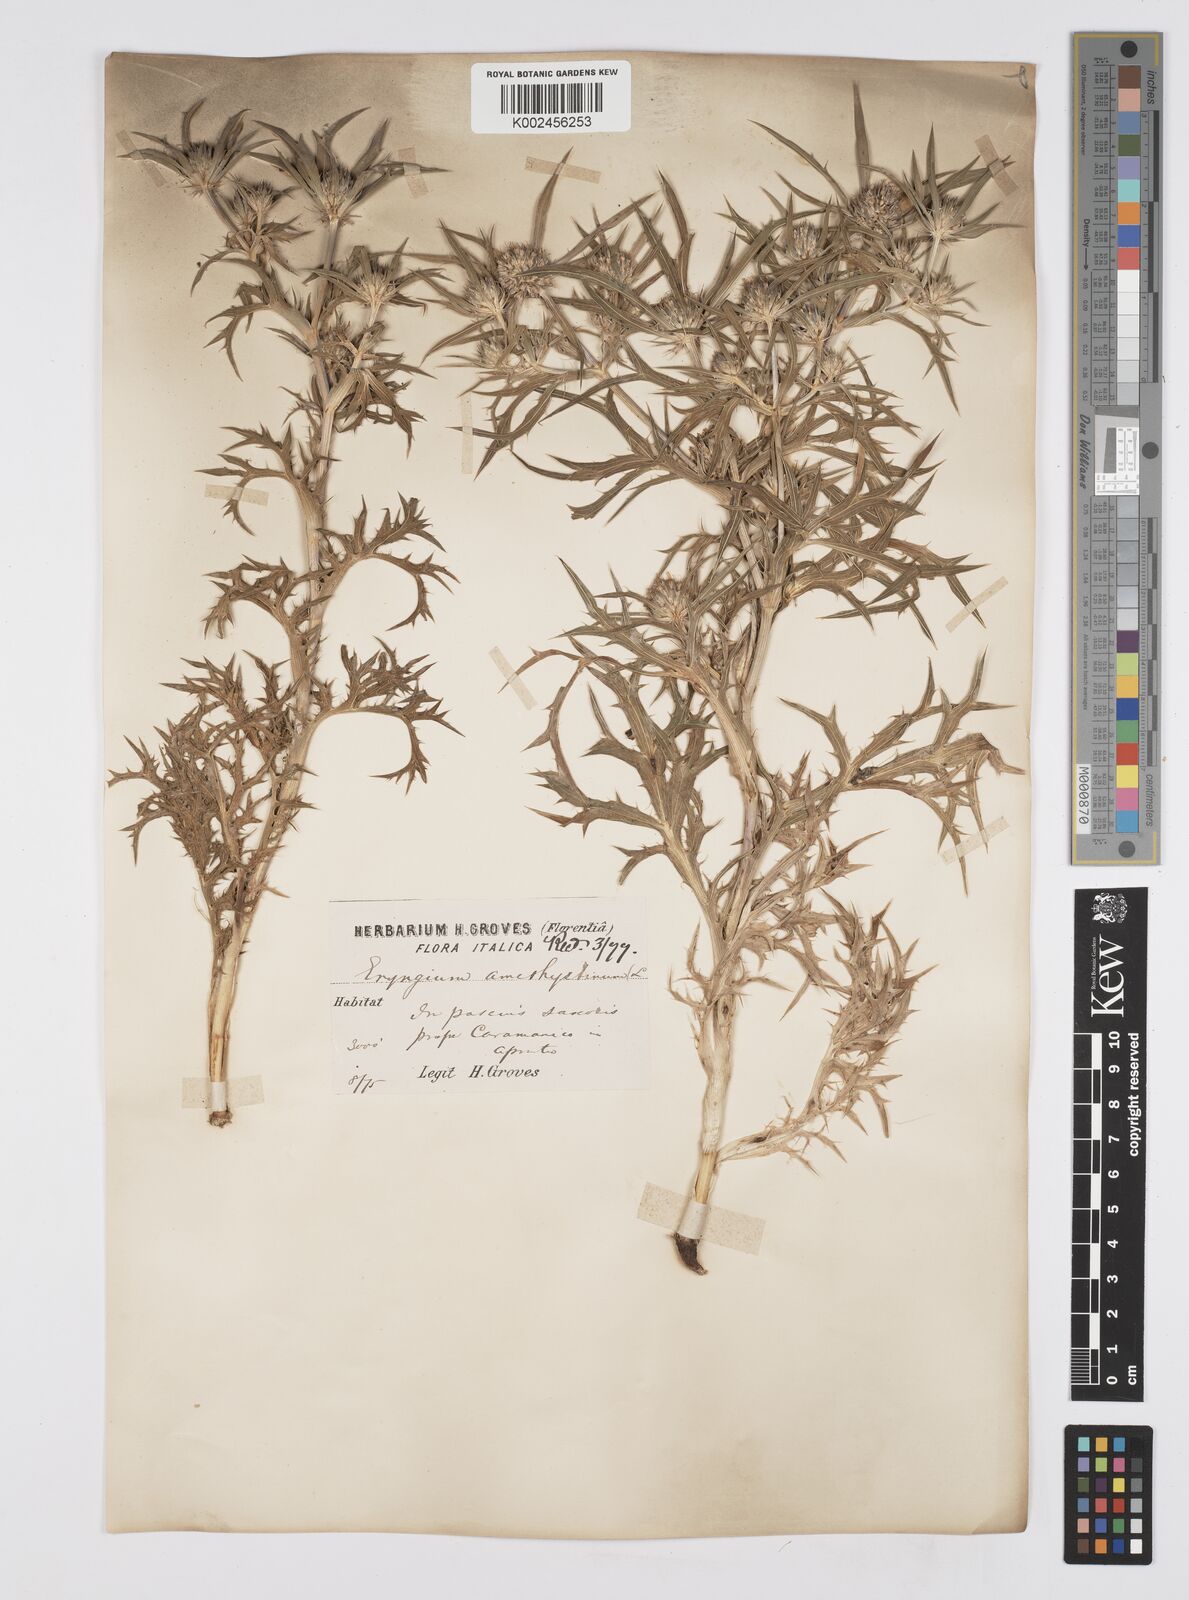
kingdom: Plantae
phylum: Tracheophyta
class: Magnoliopsida
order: Apiales
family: Apiaceae
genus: Eryngium
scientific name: Eryngium amethystinum
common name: Amethyst eryngo
